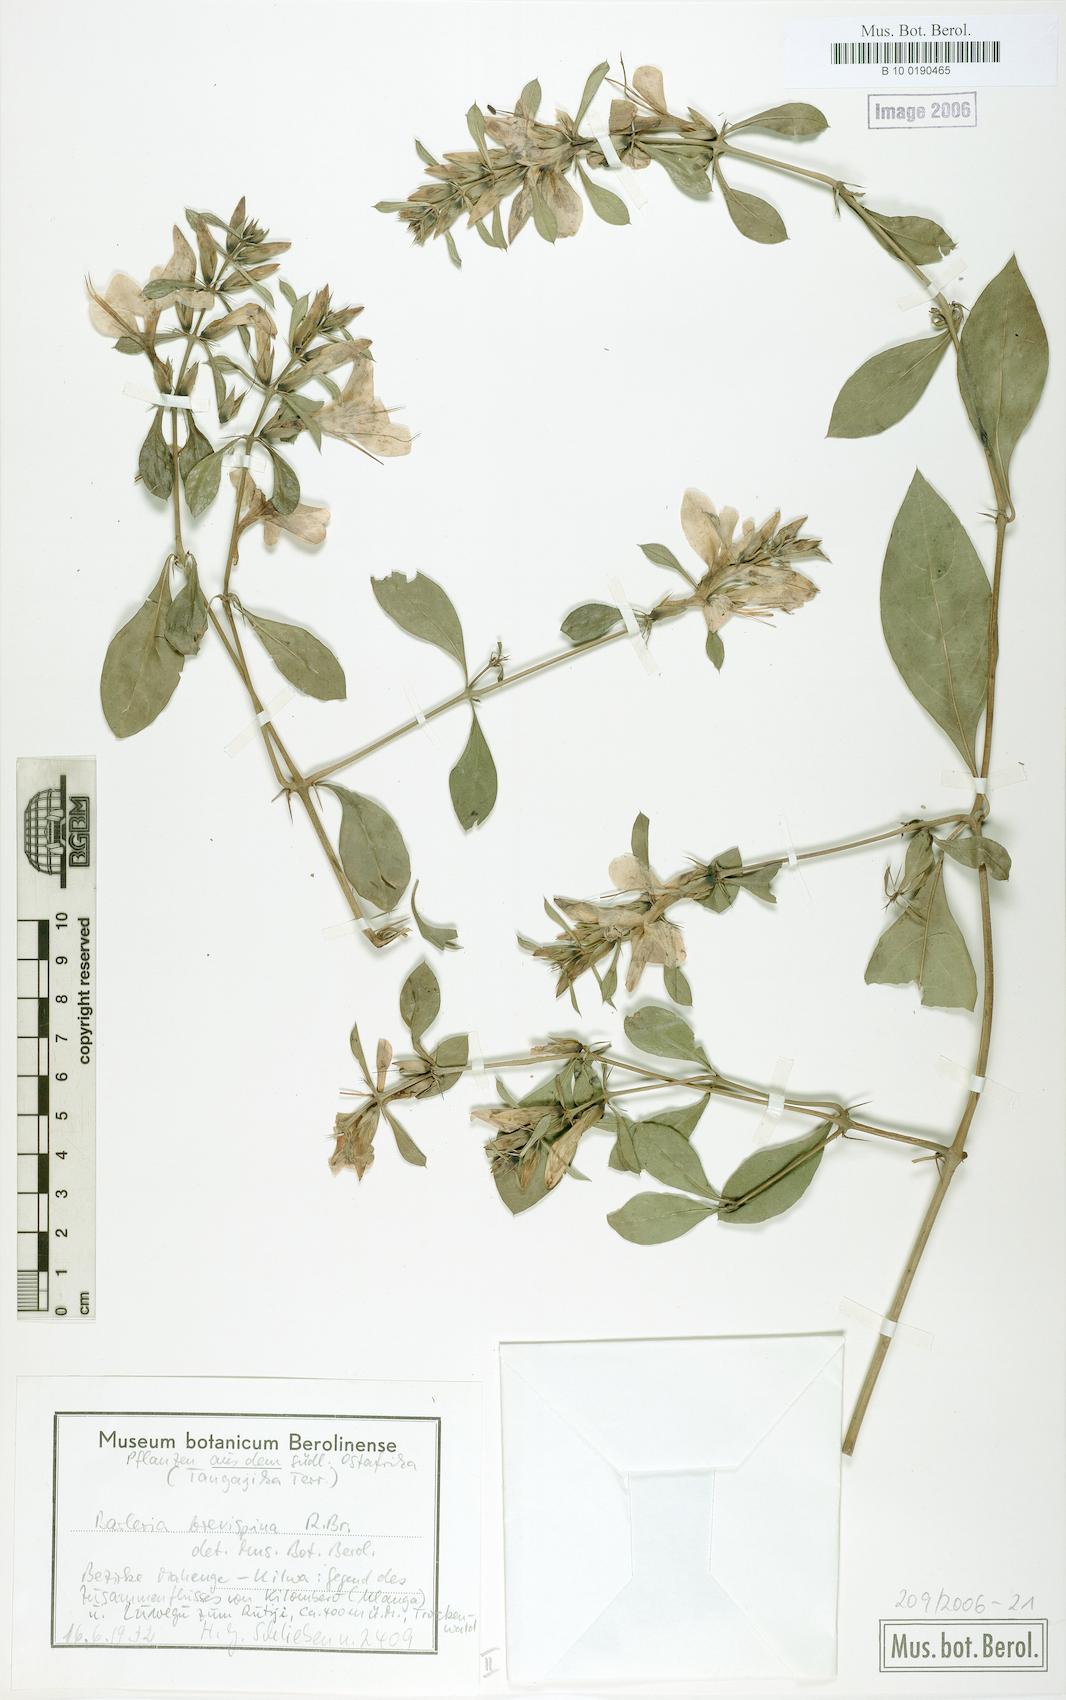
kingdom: Plantae
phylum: Tracheophyta
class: Magnoliopsida
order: Lamiales
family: Acanthaceae
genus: Barleria
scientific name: Barleria quadrispina
